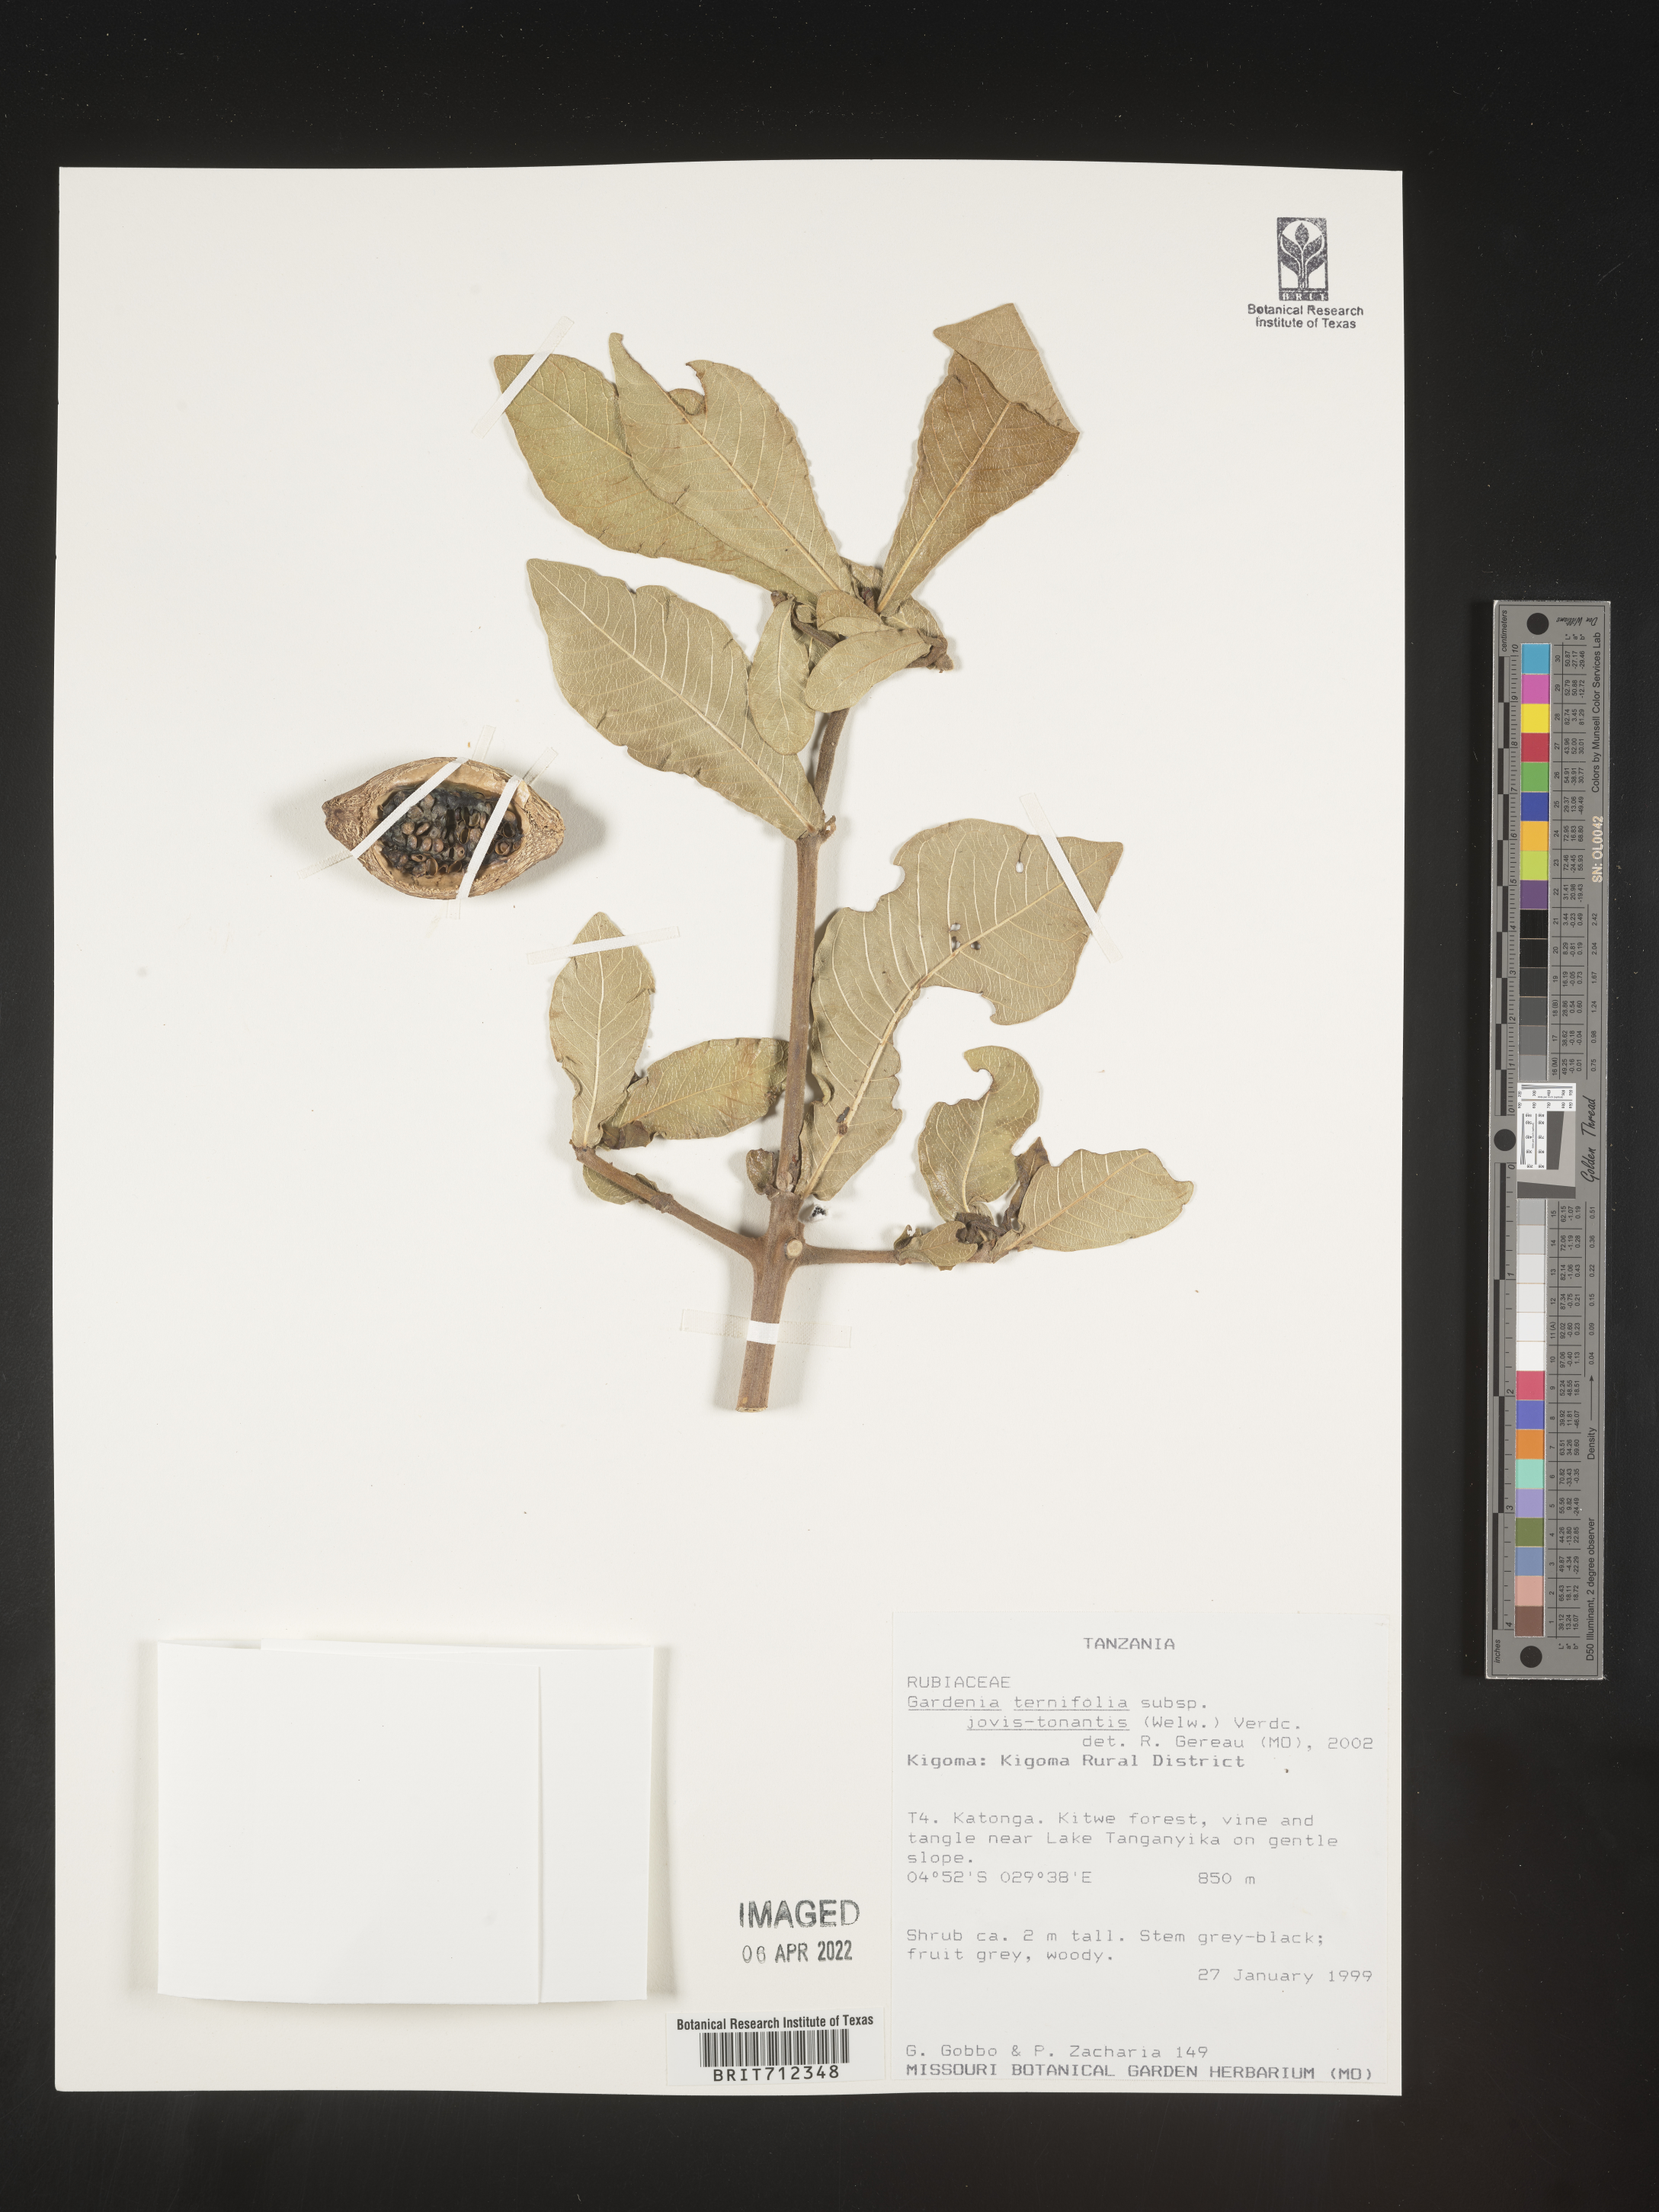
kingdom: Plantae
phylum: Tracheophyta
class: Magnoliopsida
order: Gentianales
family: Rubiaceae
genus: Gardenia
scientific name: Gardenia
